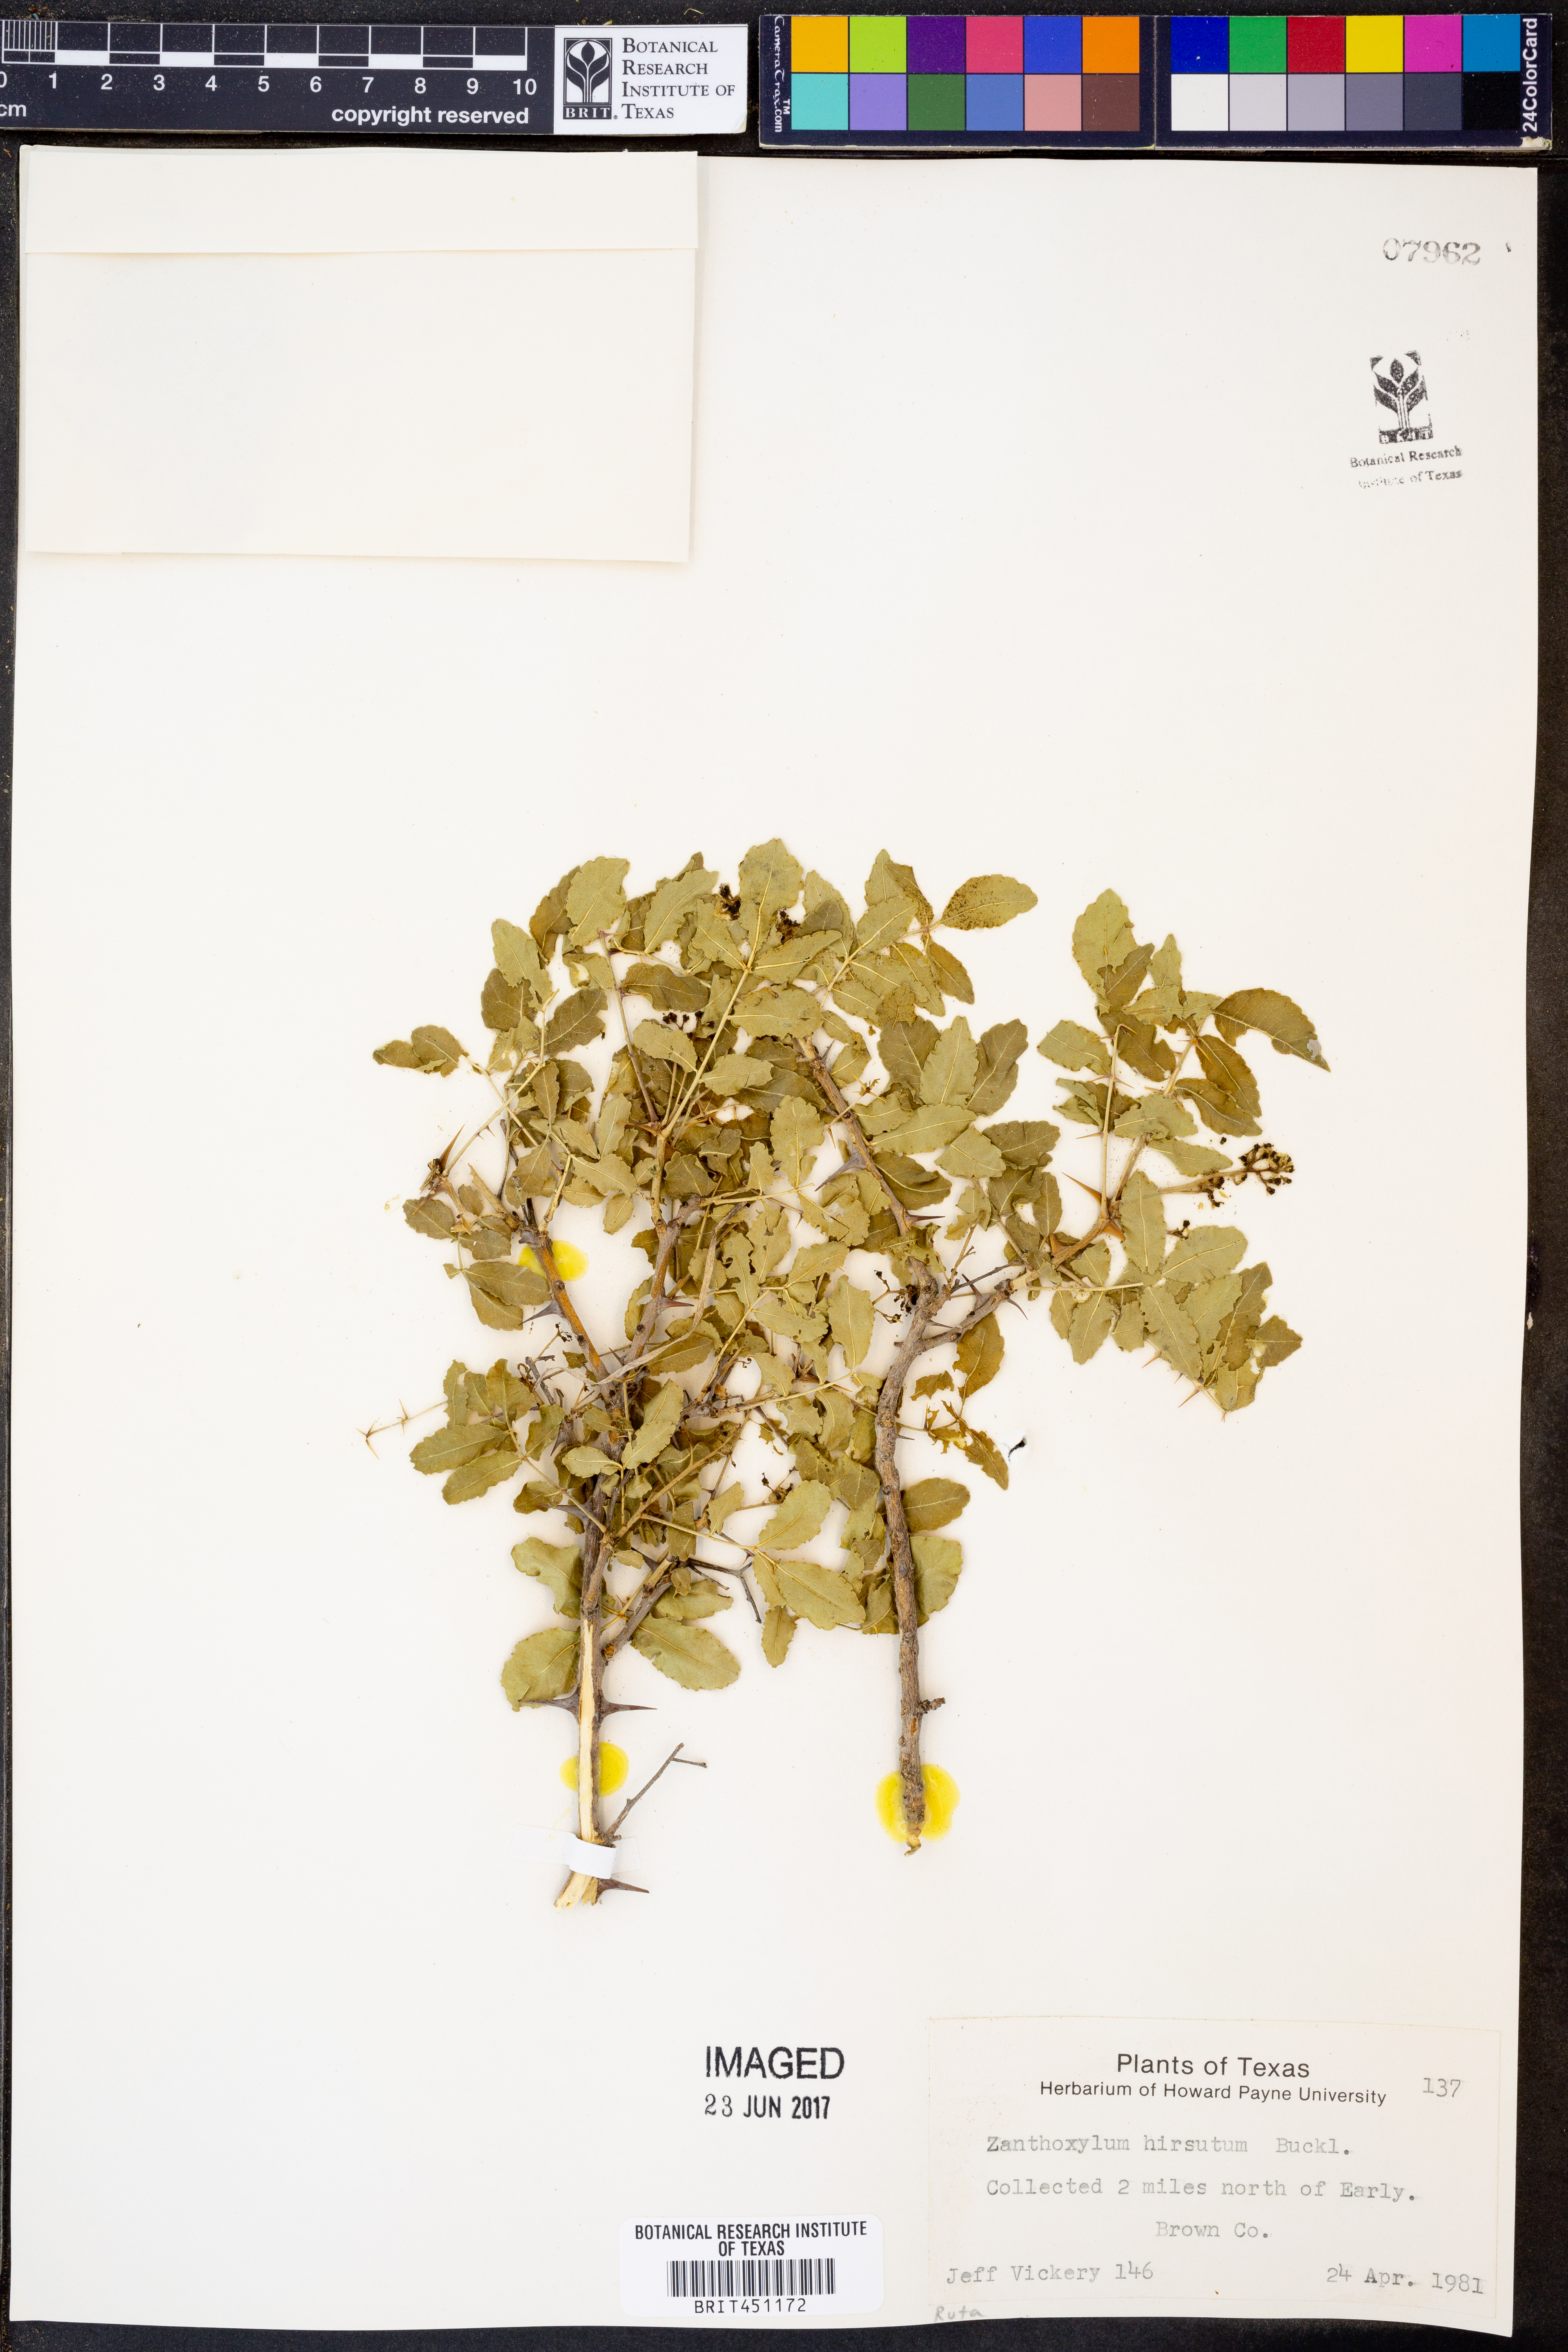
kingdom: Plantae
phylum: Tracheophyta
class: Magnoliopsida
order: Sapindales
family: Rutaceae
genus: Zanthoxylum
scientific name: Zanthoxylum clava-herculis
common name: Hercules'-club
